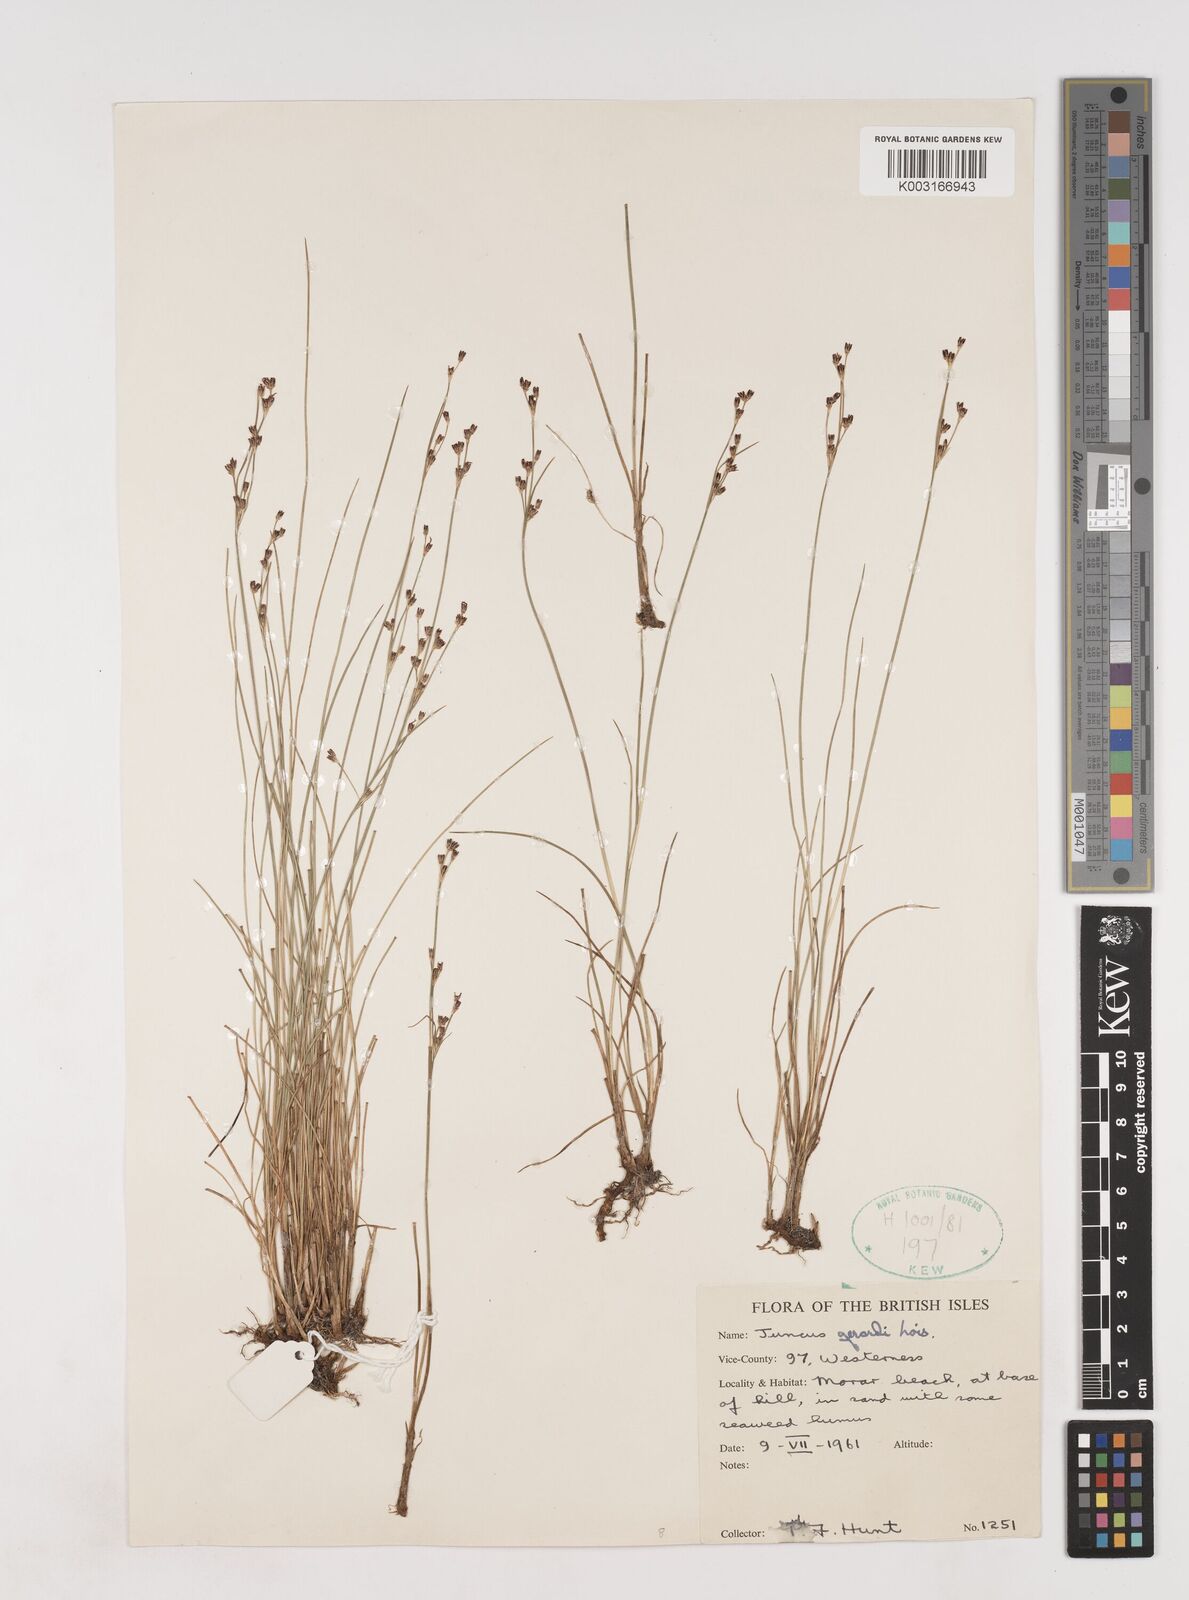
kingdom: Plantae
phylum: Tracheophyta
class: Liliopsida
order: Poales
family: Juncaceae
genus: Juncus
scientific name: Juncus gerardi
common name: Saltmarsh rush
